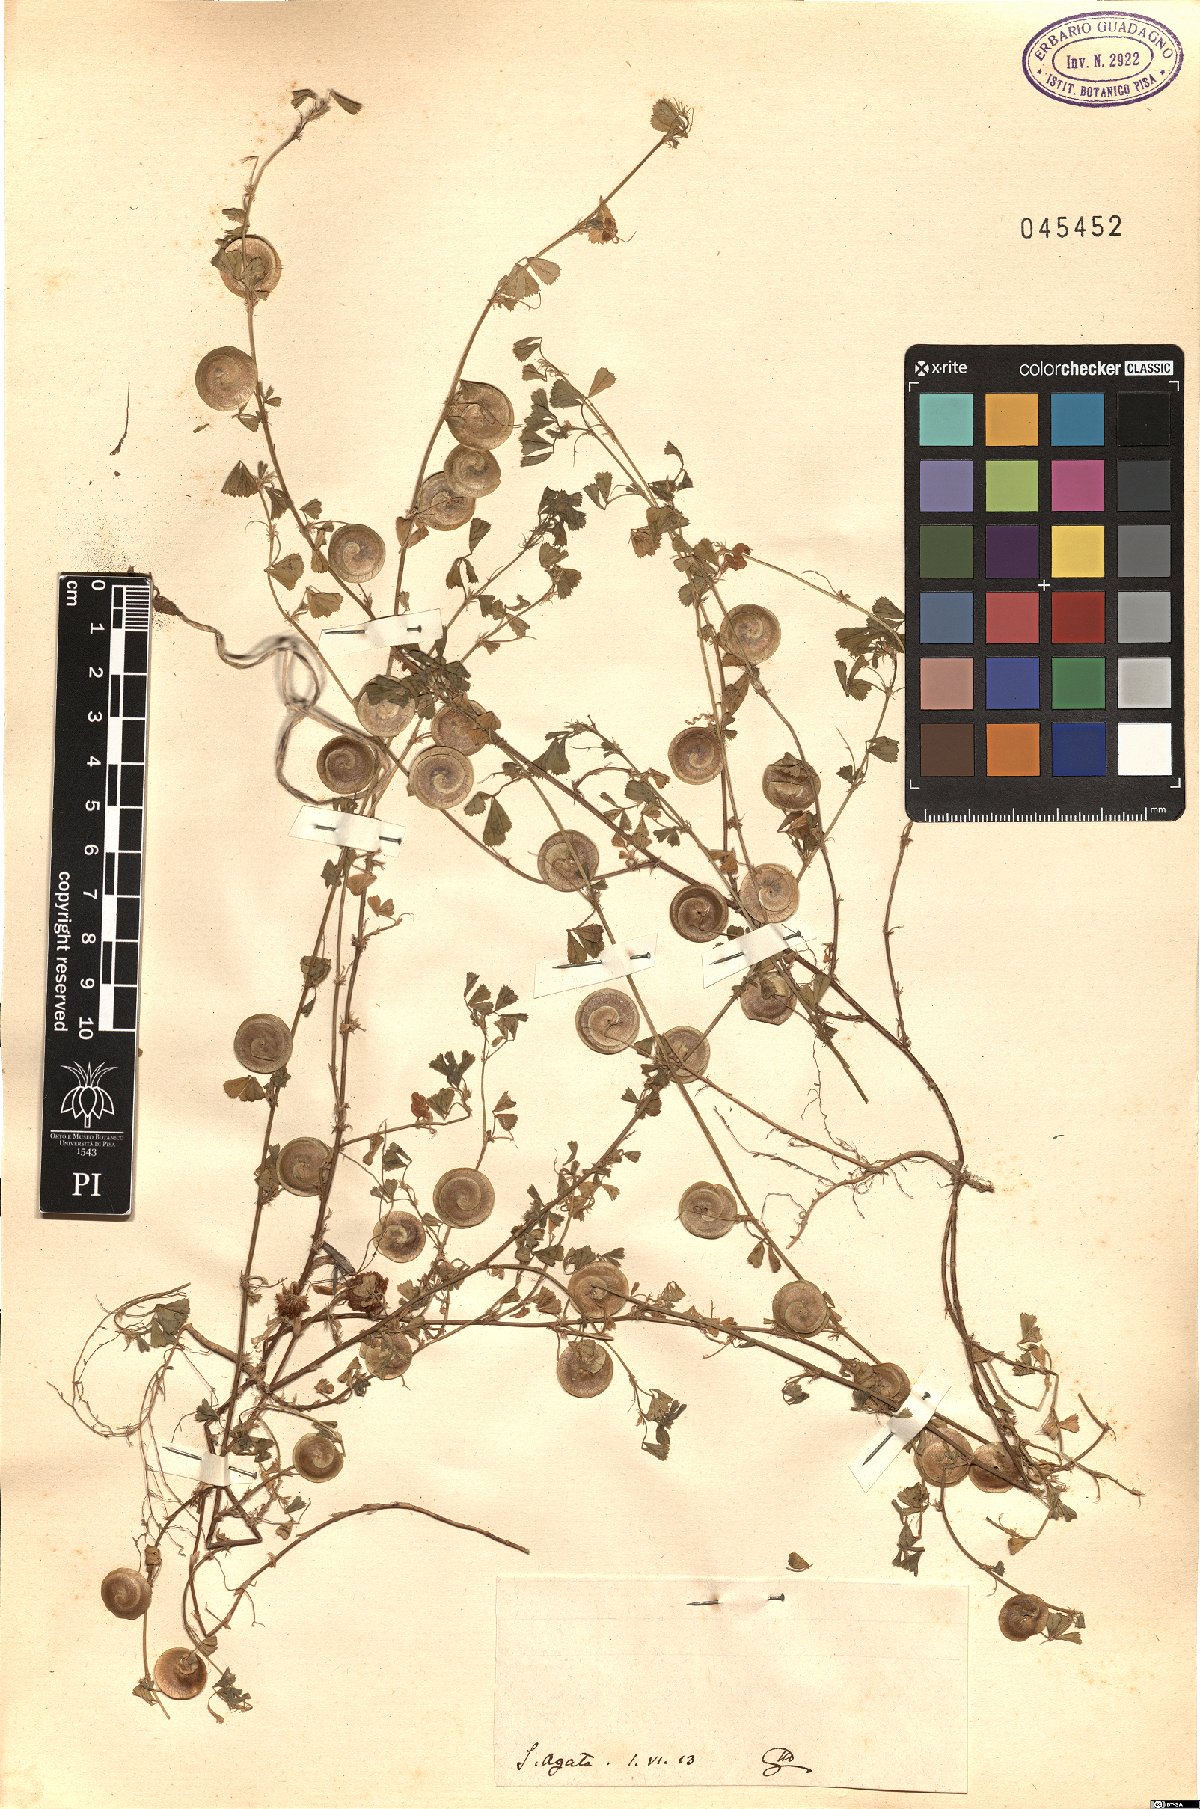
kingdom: Plantae
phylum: Tracheophyta
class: Magnoliopsida
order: Fabales
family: Fabaceae
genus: Medicago
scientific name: Medicago
